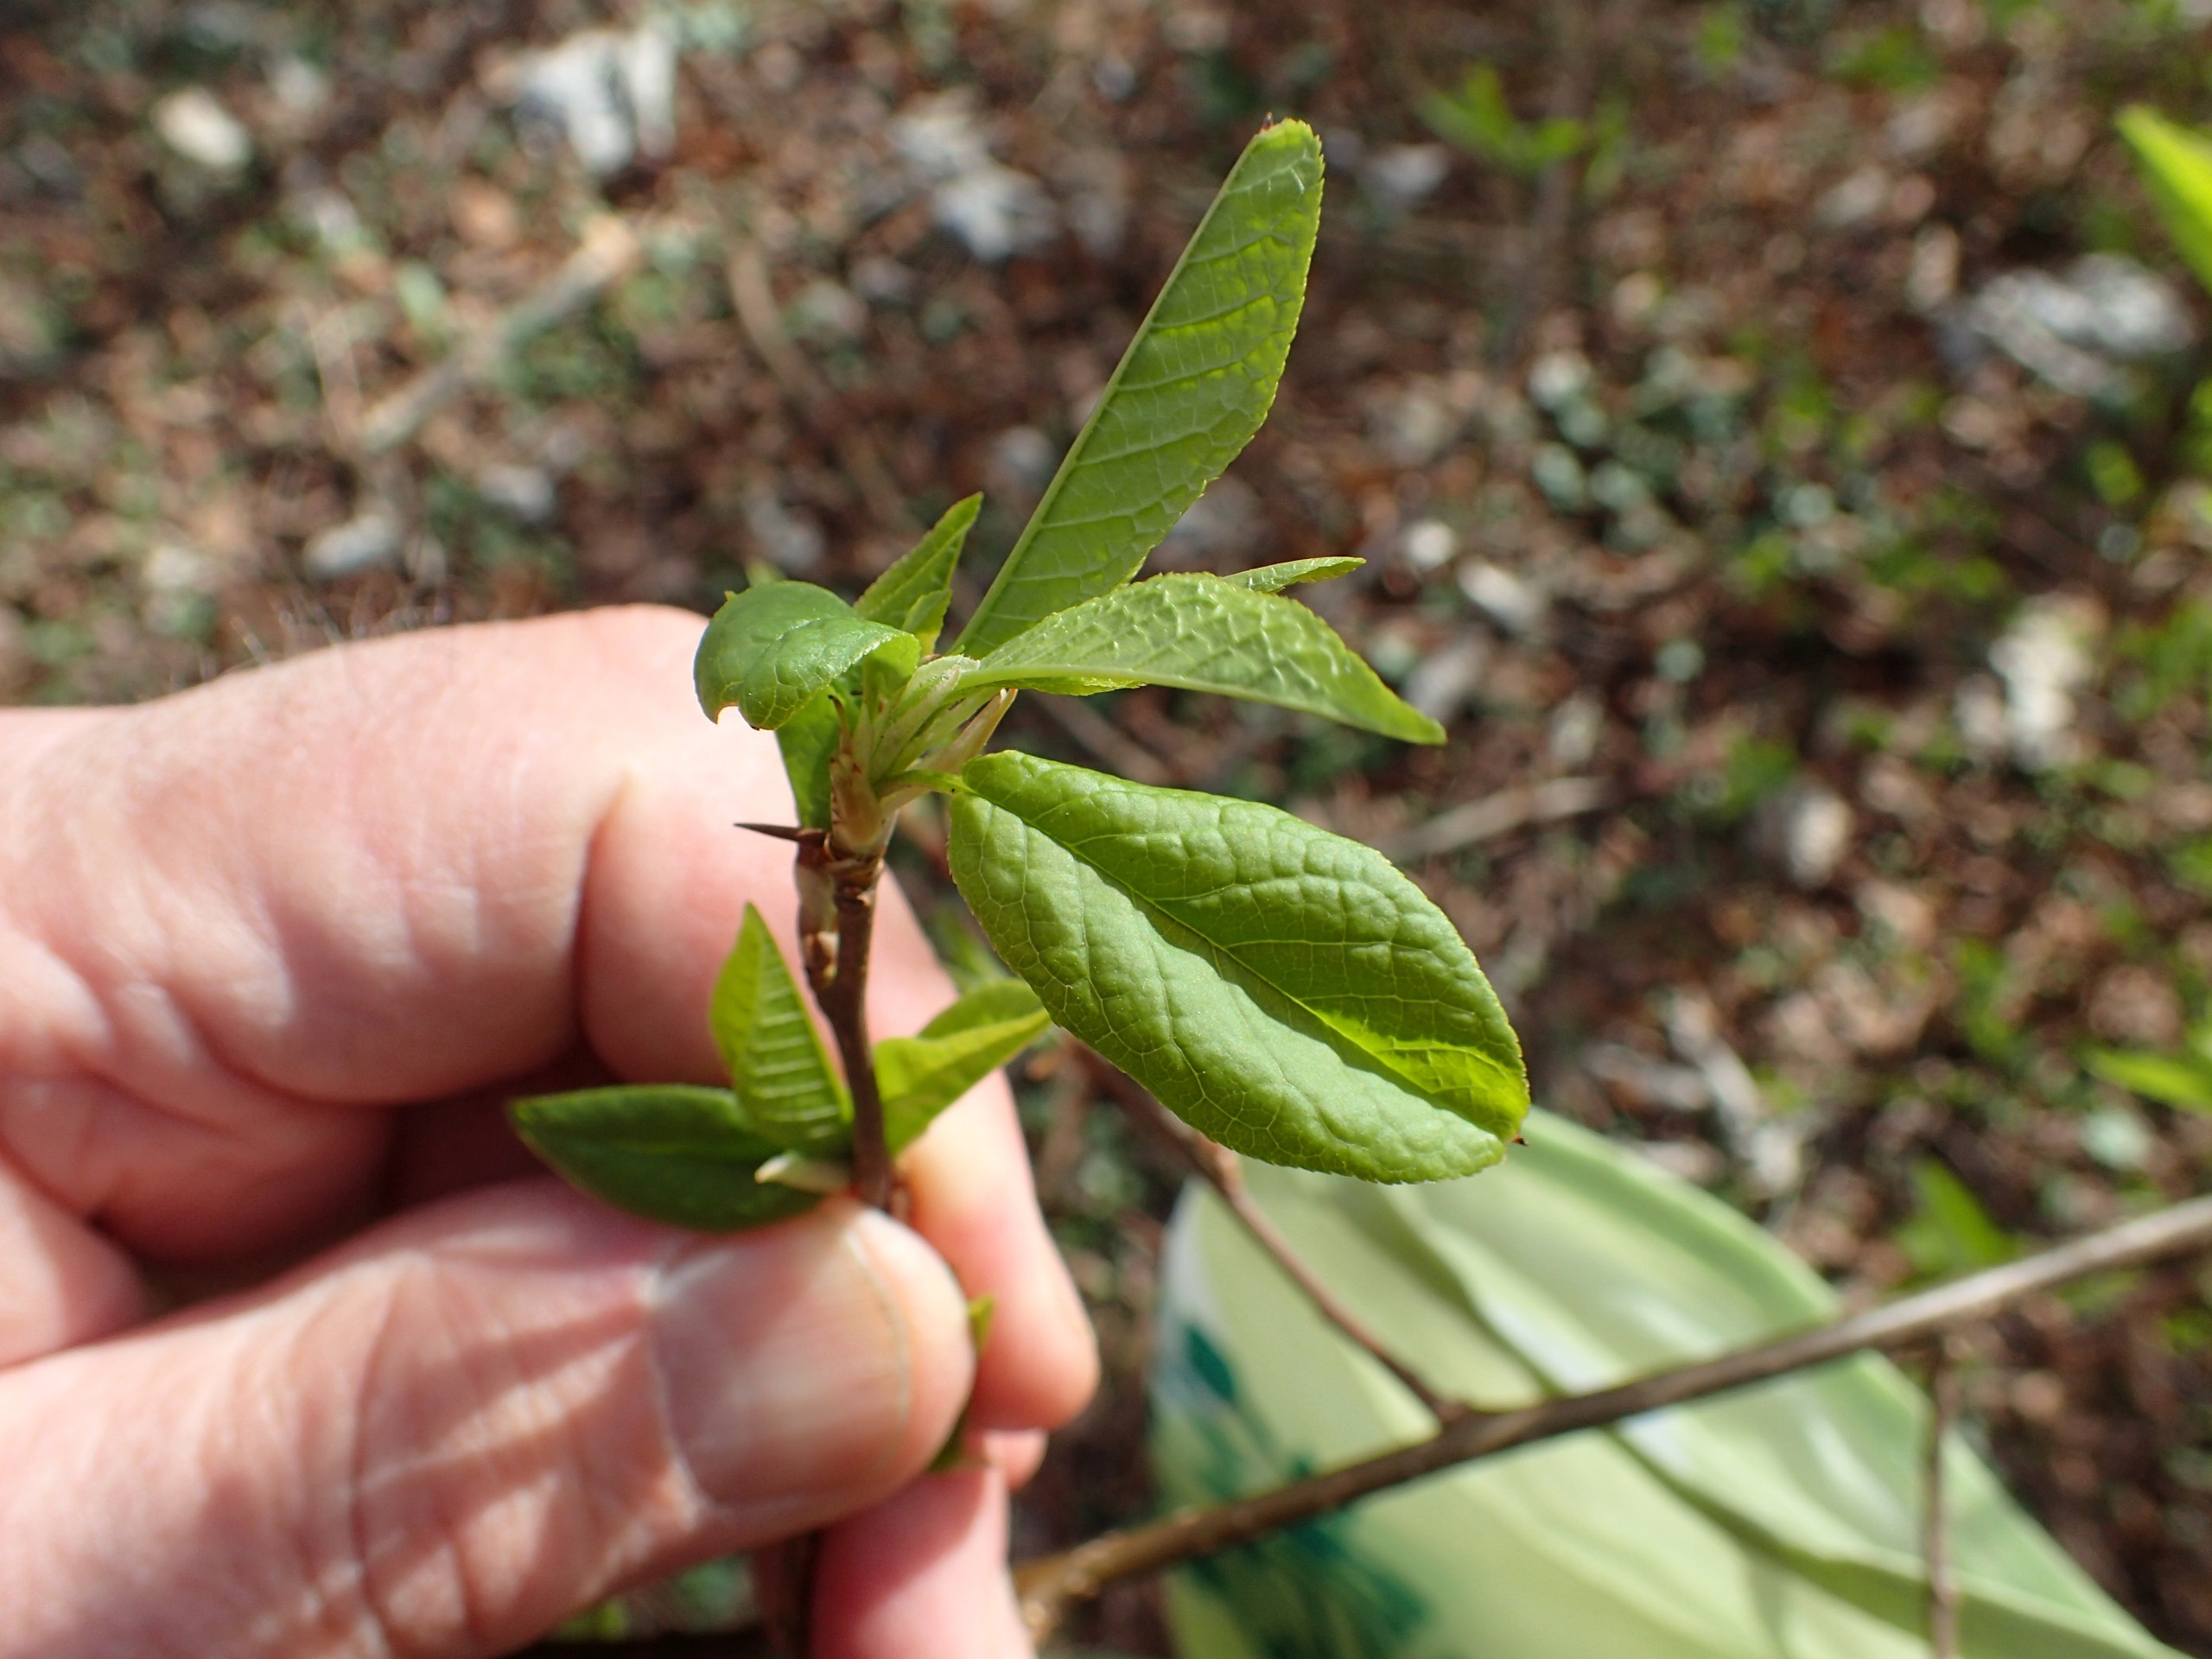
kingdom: Plantae
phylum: Tracheophyta
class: Magnoliopsida
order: Rosales
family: Rosaceae
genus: Prunus
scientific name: Prunus padus
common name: Almindelig hæg
